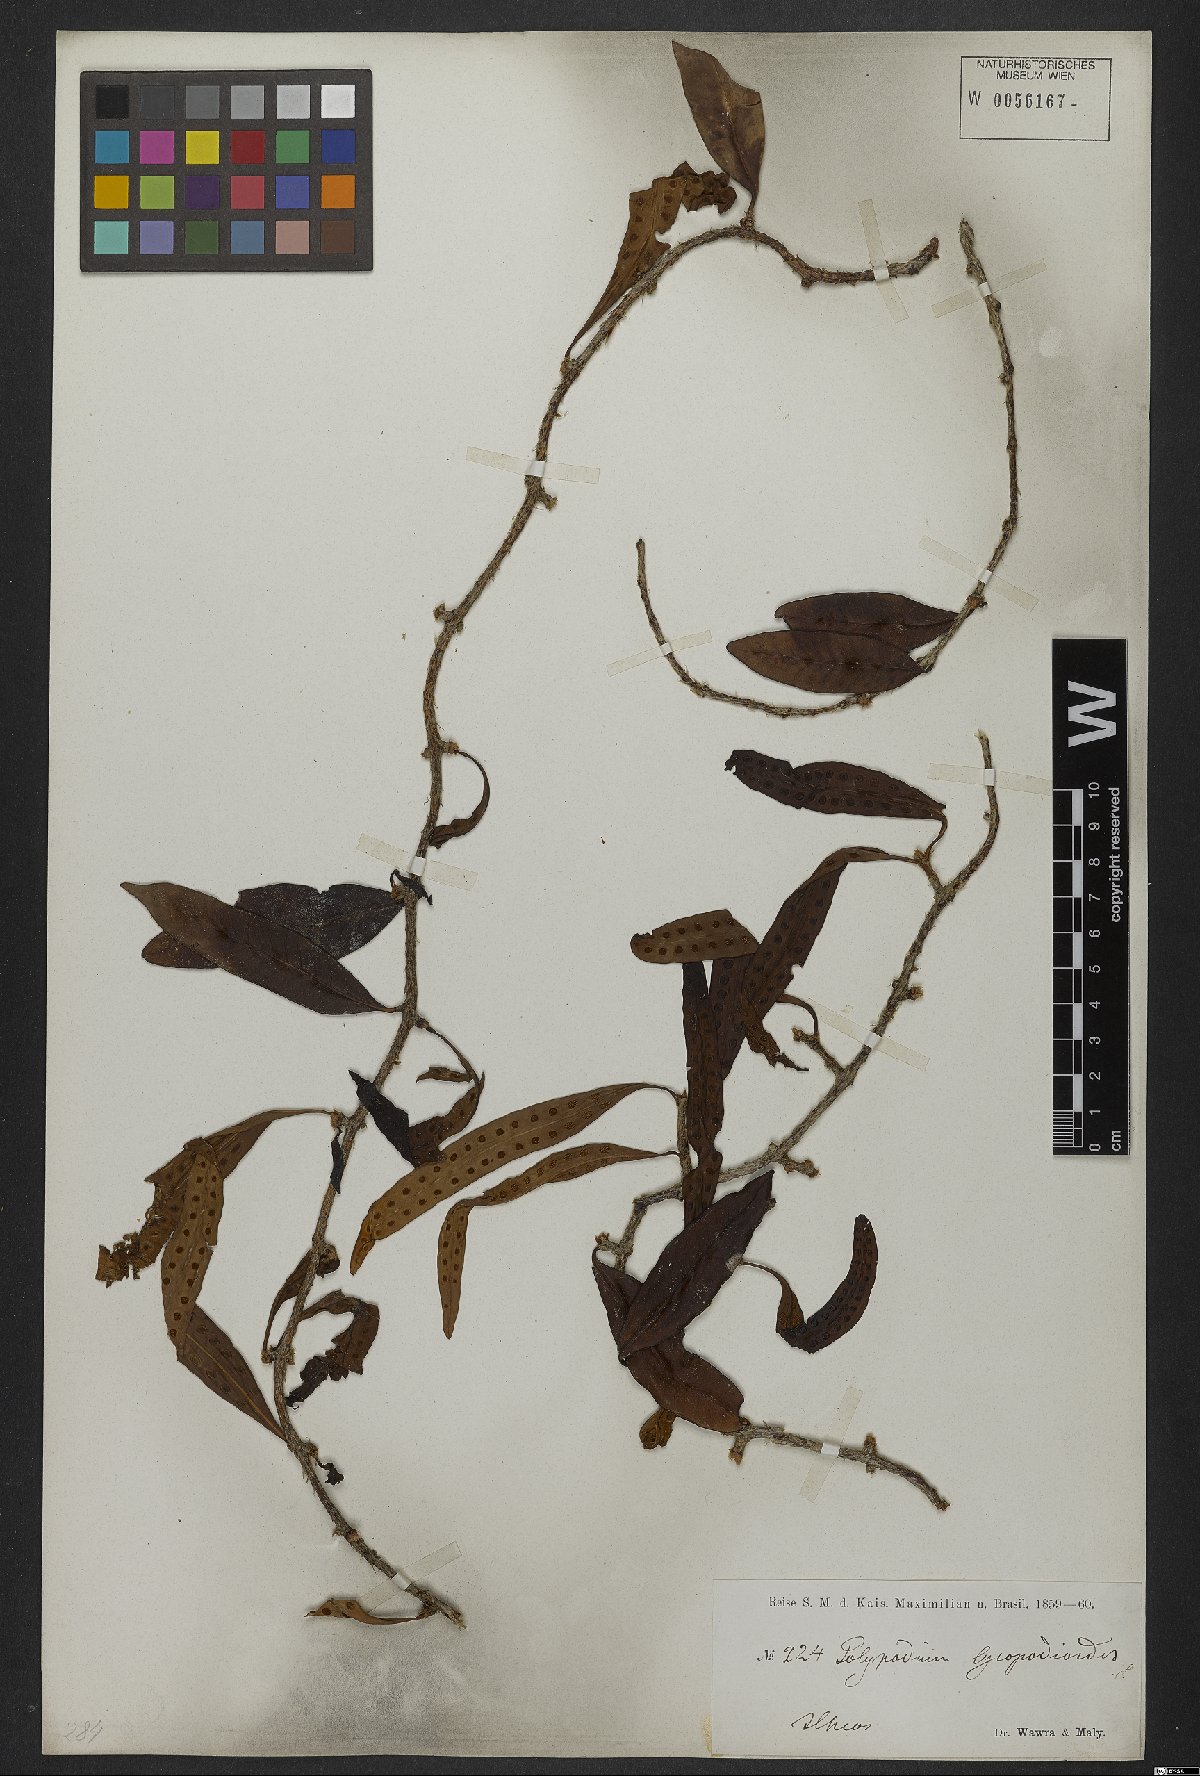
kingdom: Plantae
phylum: Tracheophyta
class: Polypodiopsida
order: Polypodiales
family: Polypodiaceae
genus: Microgramma
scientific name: Microgramma lycopodioides
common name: Bastard catclaw
